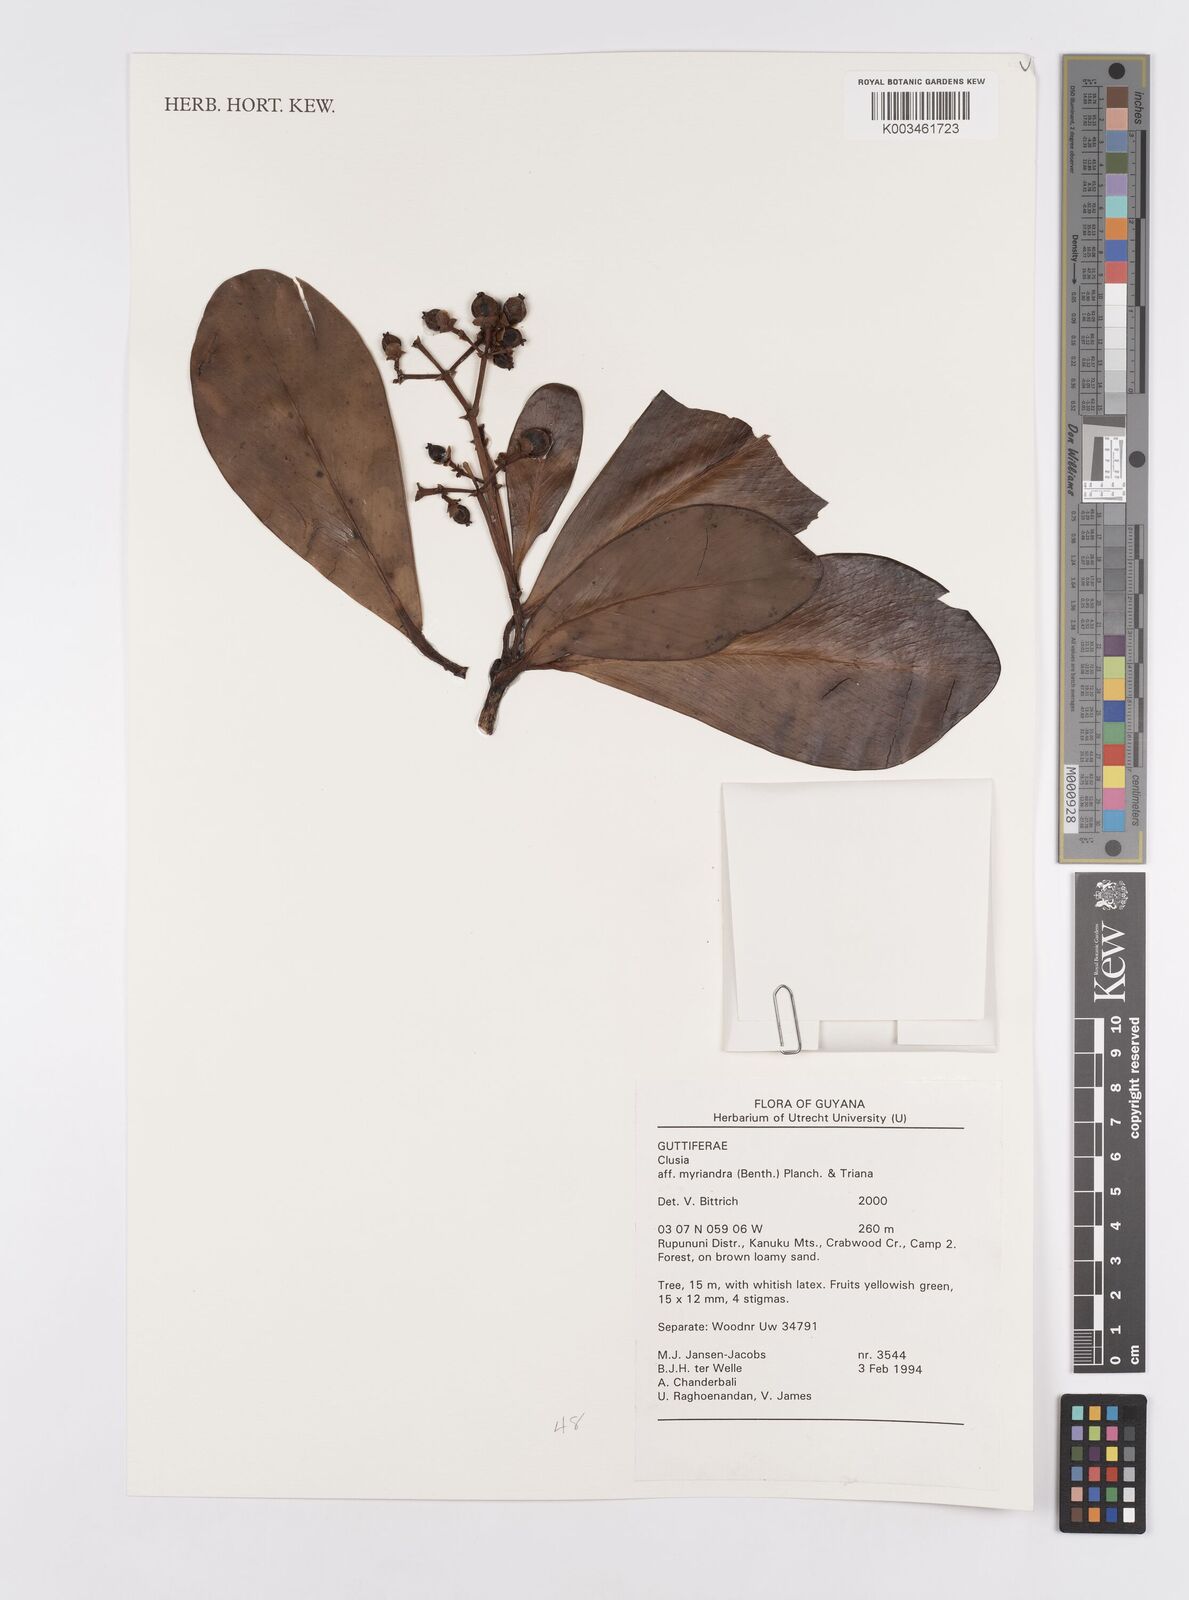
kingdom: Plantae
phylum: Tracheophyta
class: Magnoliopsida
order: Malpighiales
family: Clusiaceae
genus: Clusia
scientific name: Clusia myriandra
